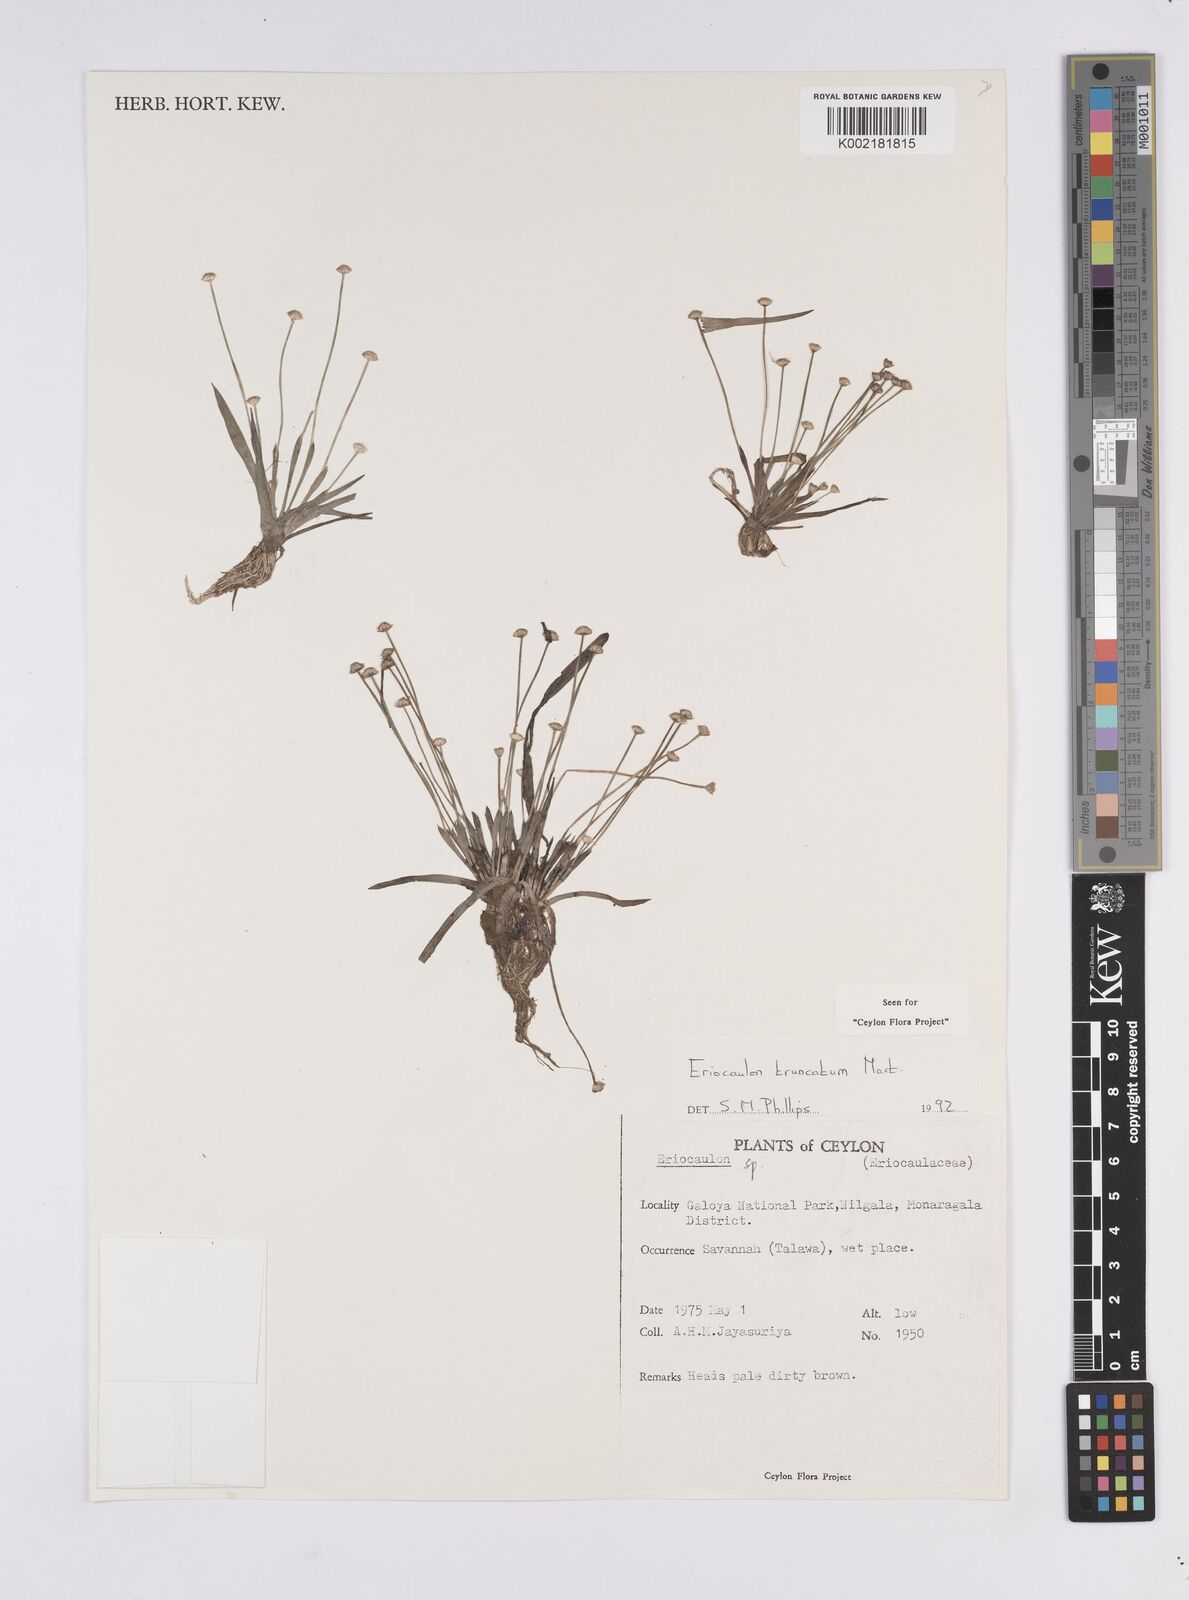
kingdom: Plantae
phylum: Tracheophyta
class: Liliopsida
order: Poales
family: Eriocaulaceae
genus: Eriocaulon
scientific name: Eriocaulon truncatum
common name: Short pipe-wort
